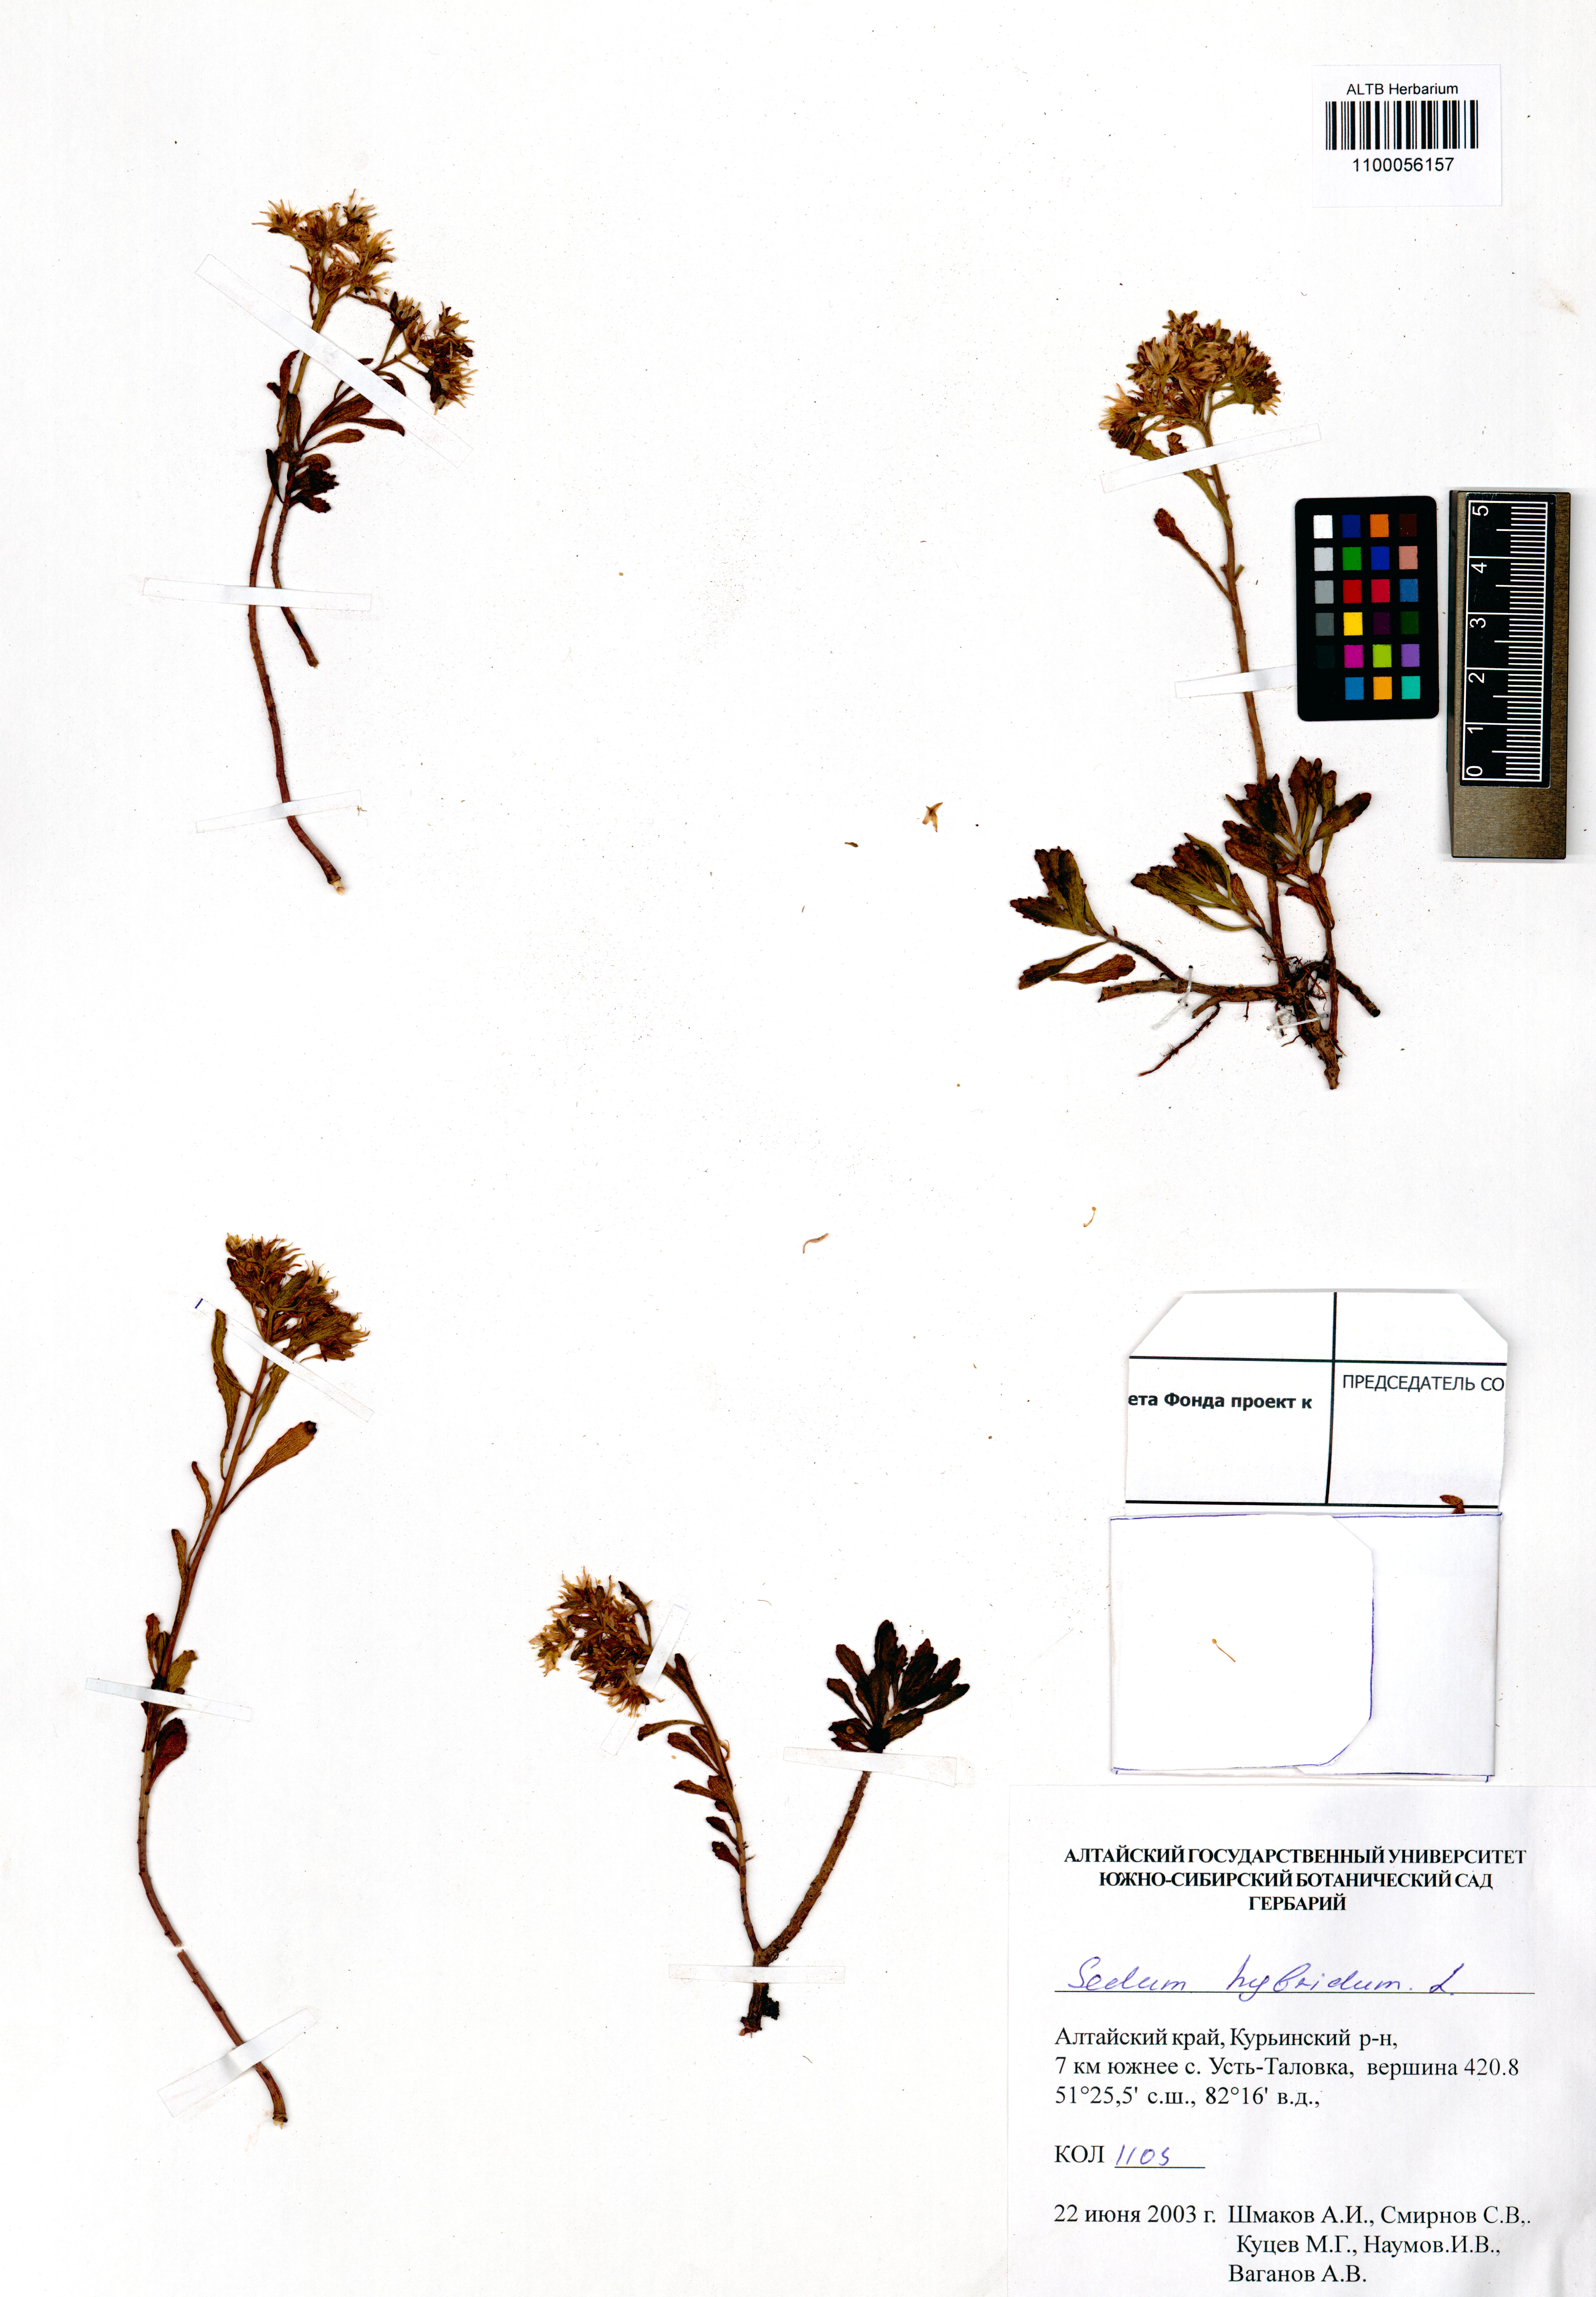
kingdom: Plantae
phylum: Tracheophyta
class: Magnoliopsida
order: Saxifragales
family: Crassulaceae
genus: Phedimus
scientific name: Phedimus hybridus
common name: Hybrid stonecrop
